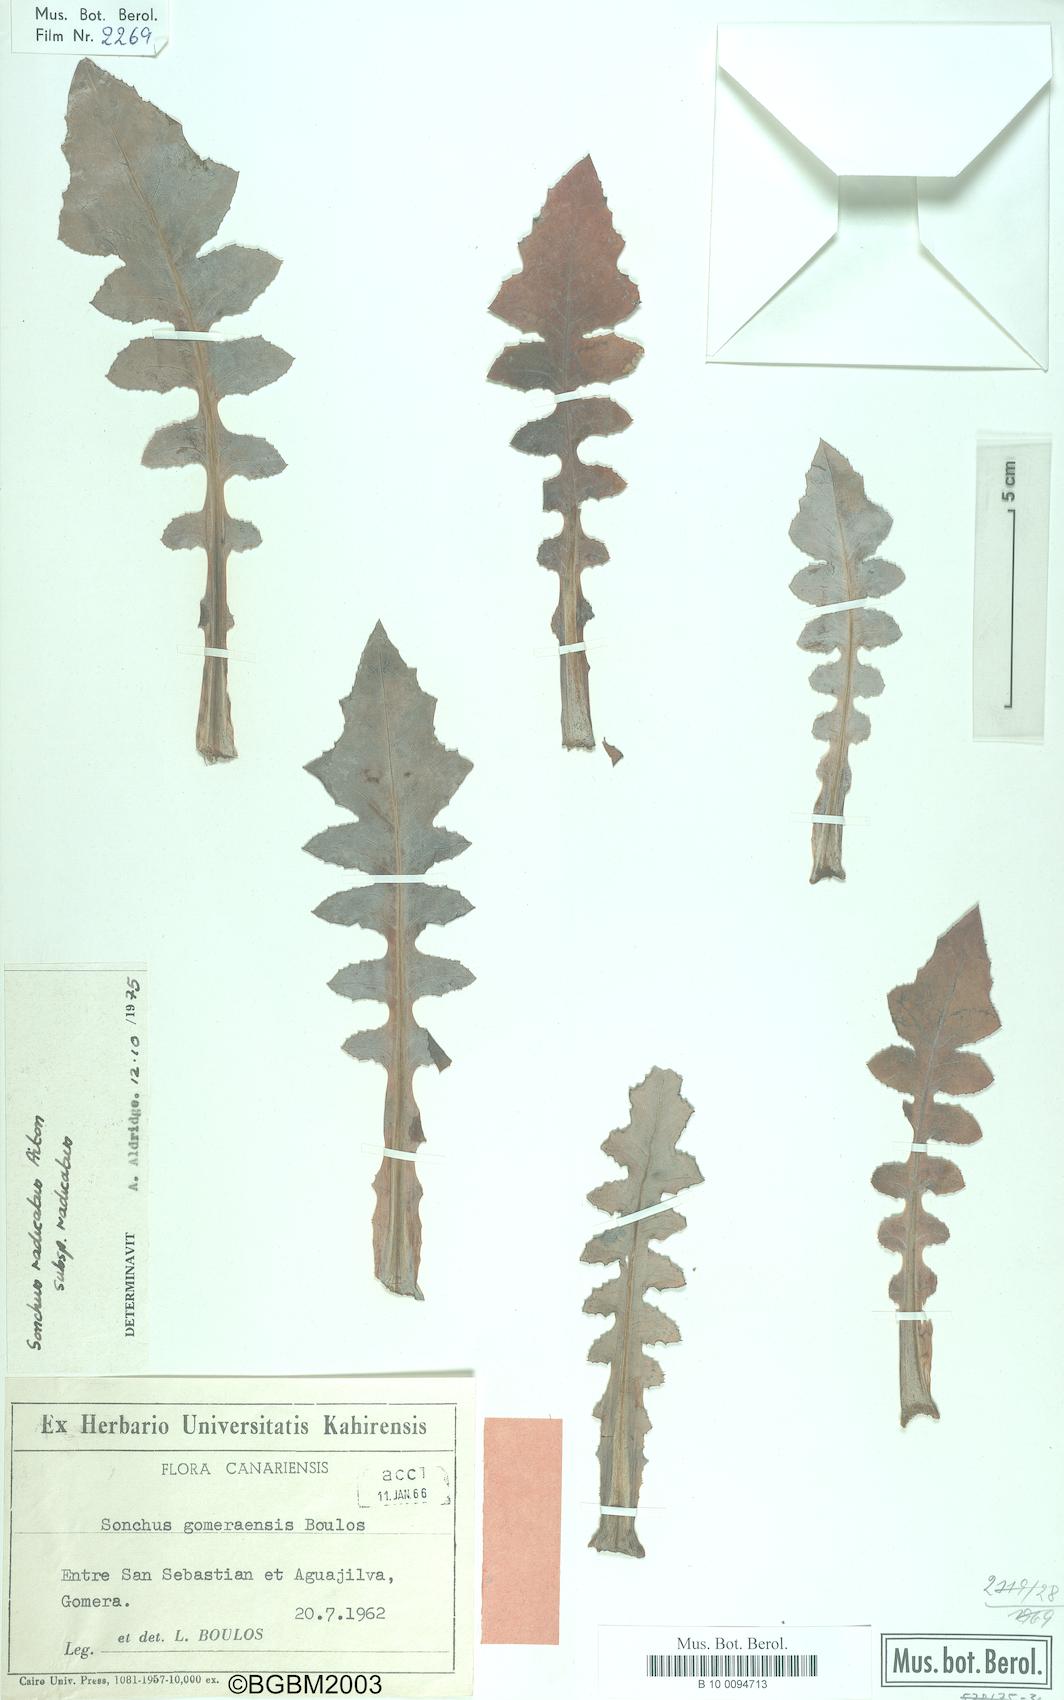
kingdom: Plantae
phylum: Tracheophyta
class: Magnoliopsida
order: Asterales
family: Asteraceae
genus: Sonchus
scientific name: Sonchus radicatus
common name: Long-rooted sow-thistle
